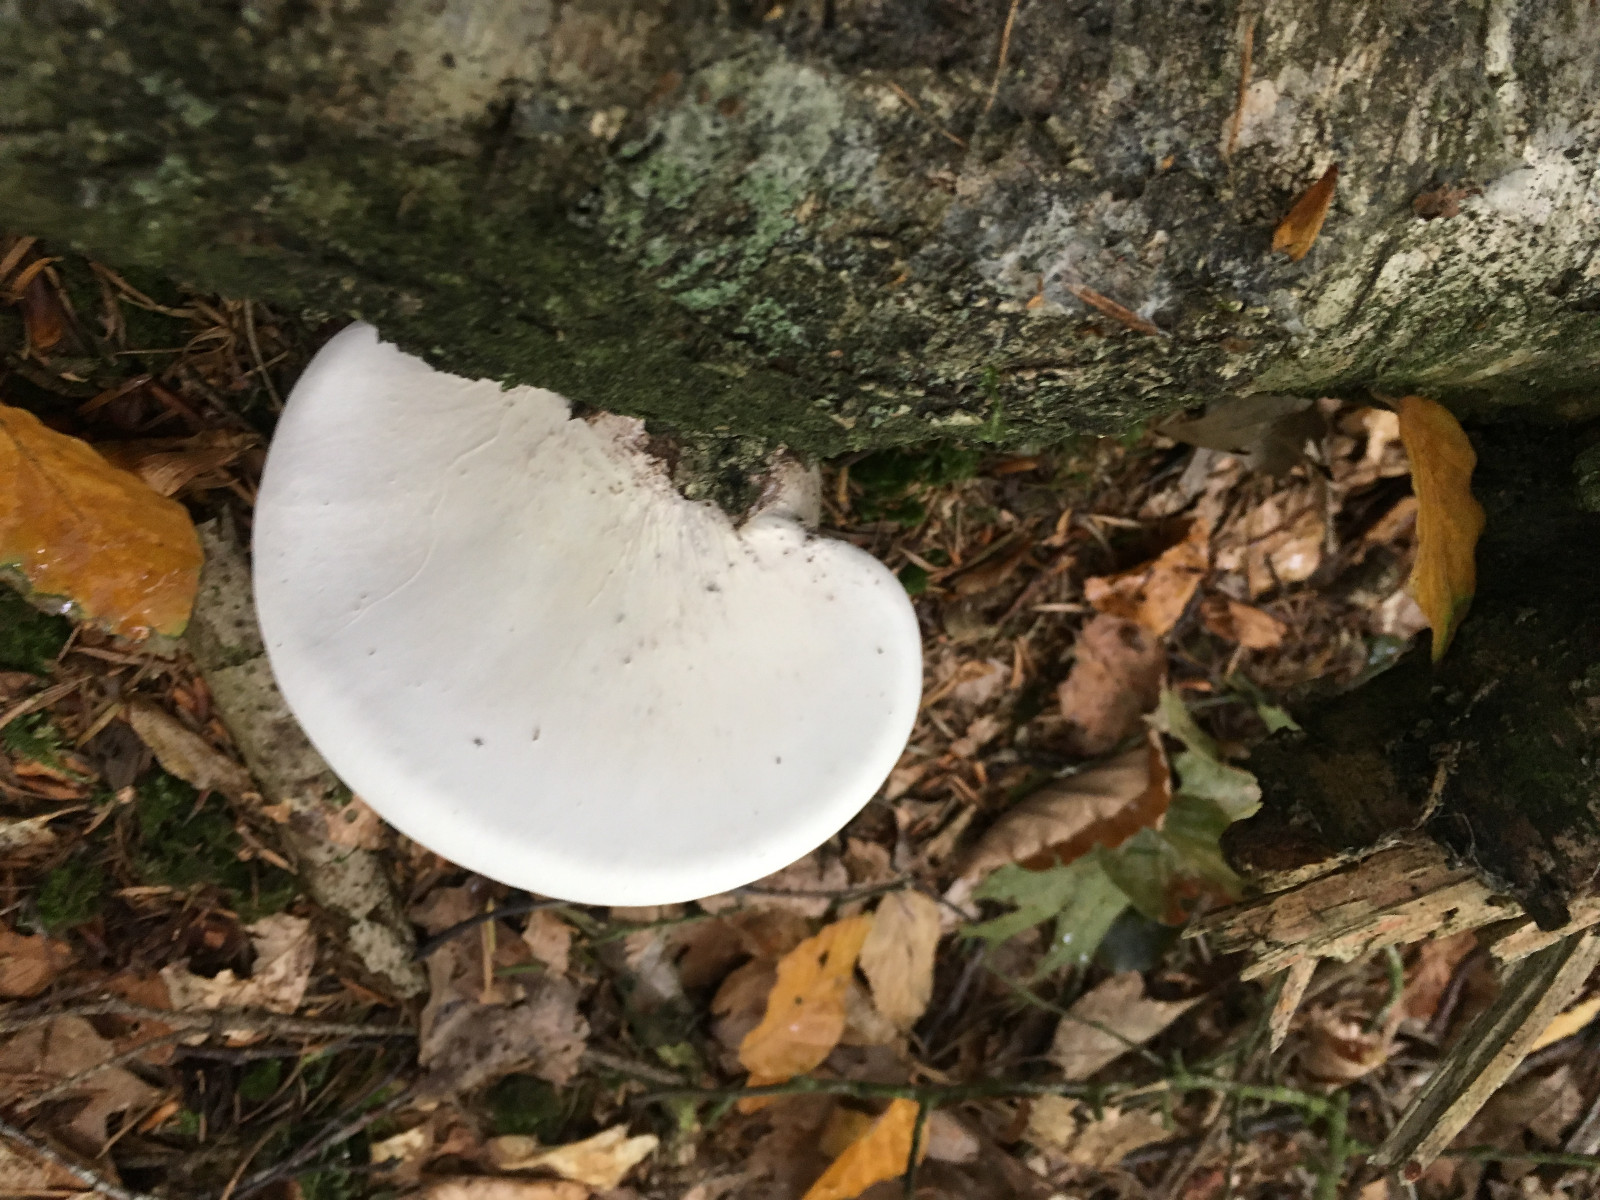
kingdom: Fungi
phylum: Basidiomycota
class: Agaricomycetes
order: Polyporales
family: Fomitopsidaceae
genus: Fomitopsis
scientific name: Fomitopsis betulina
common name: birkeporesvamp
